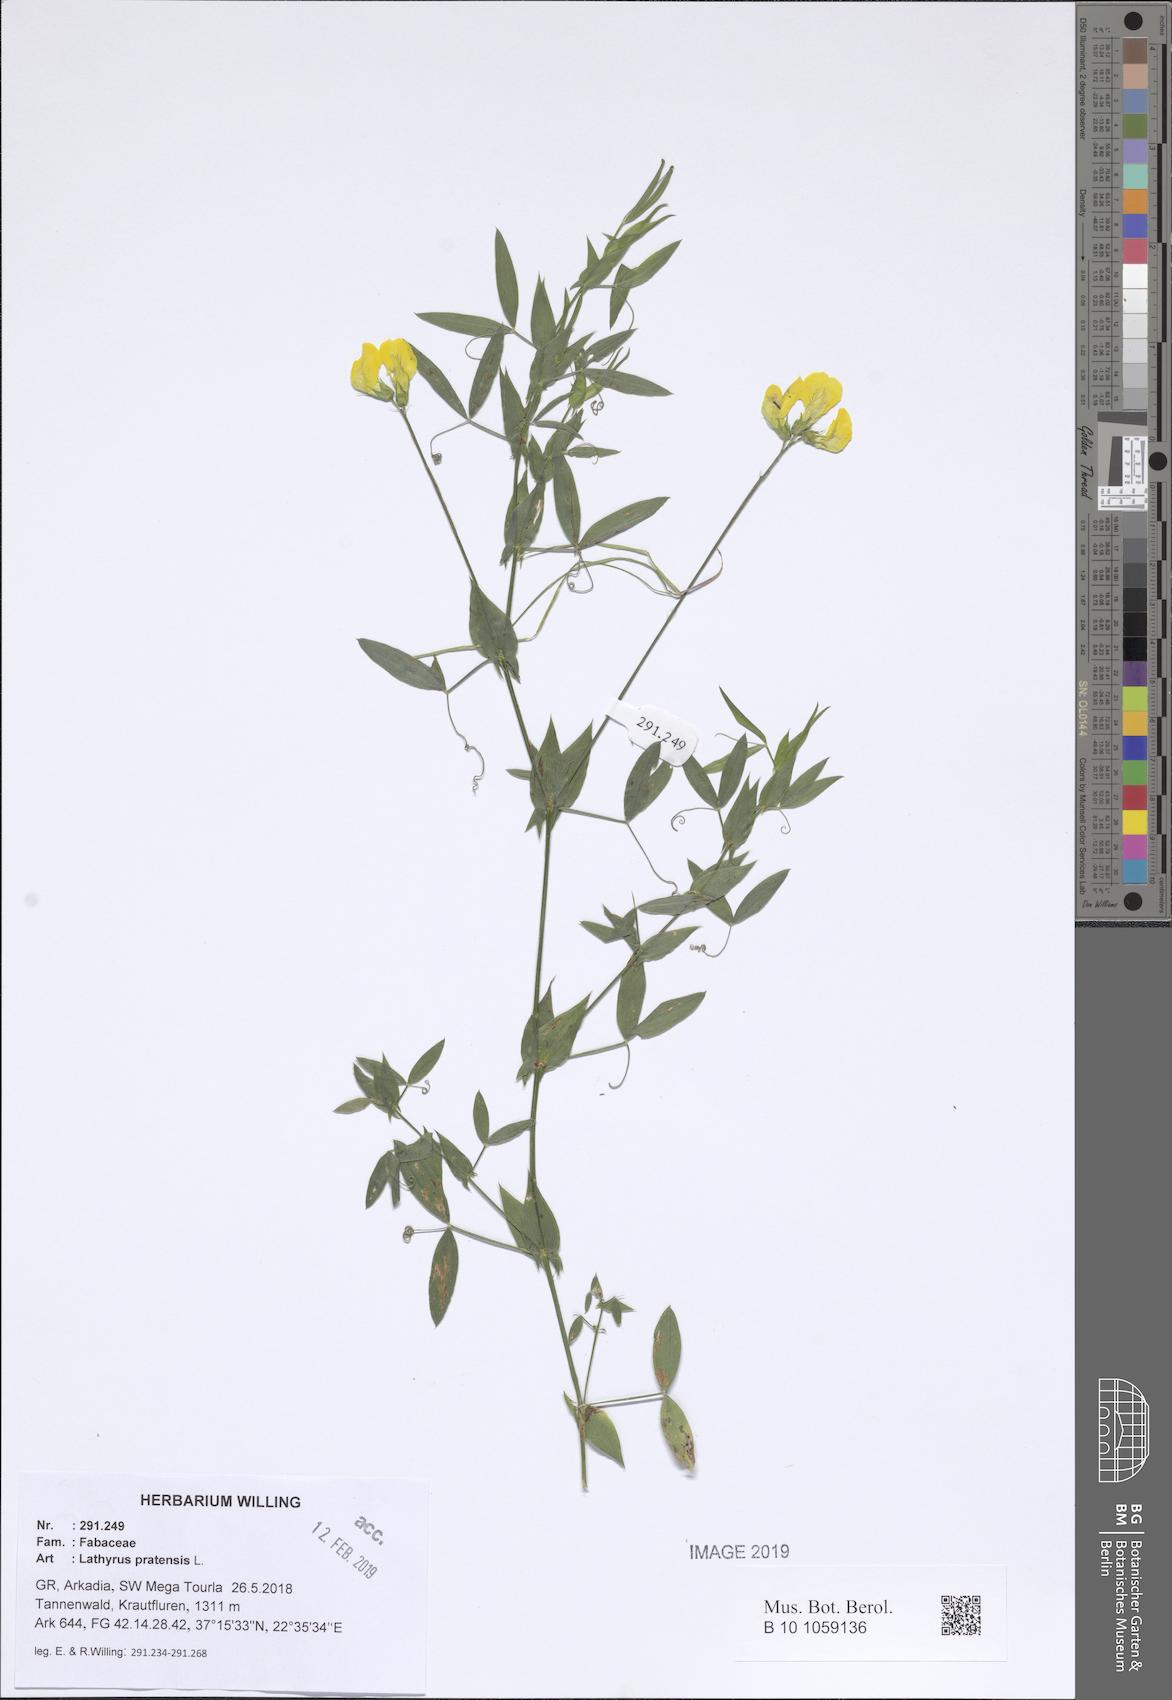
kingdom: Plantae
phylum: Tracheophyta
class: Magnoliopsida
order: Fabales
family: Fabaceae
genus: Lathyrus
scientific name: Lathyrus pratensis
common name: Meadow vetchling
